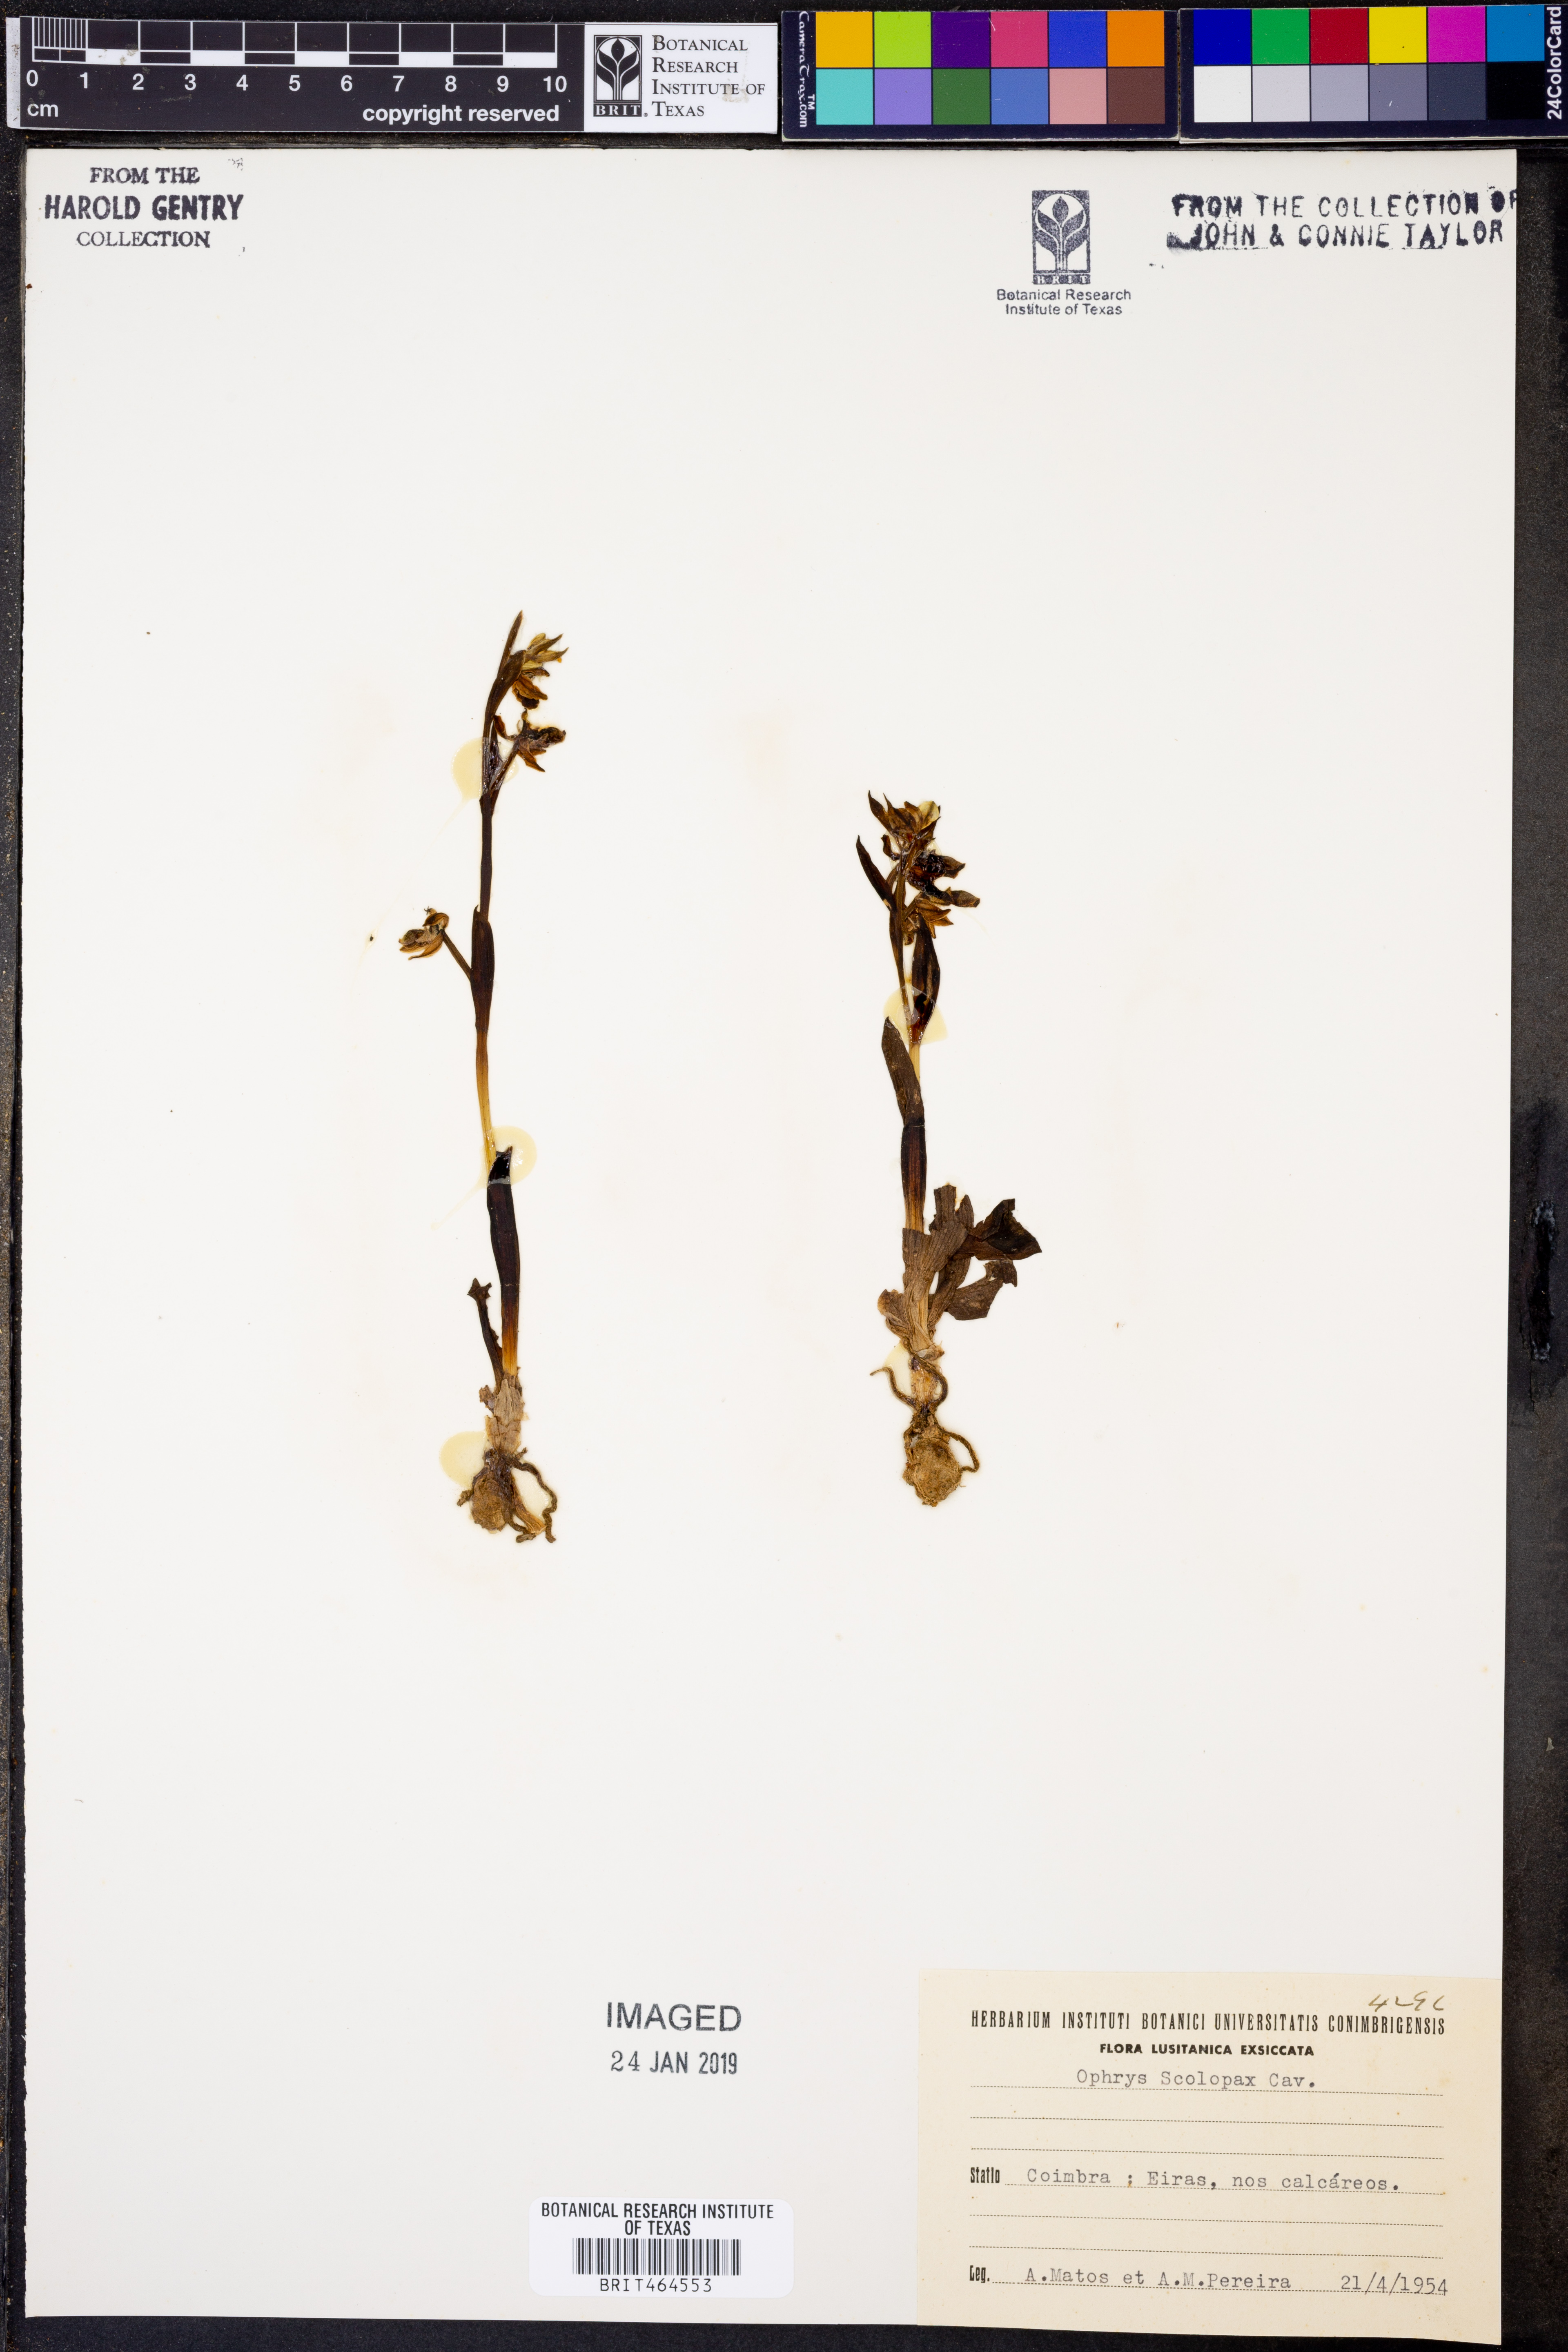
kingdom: Plantae
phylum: Tracheophyta
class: Liliopsida
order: Asparagales
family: Orchidaceae
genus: Ophrys
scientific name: Ophrys scolopax
